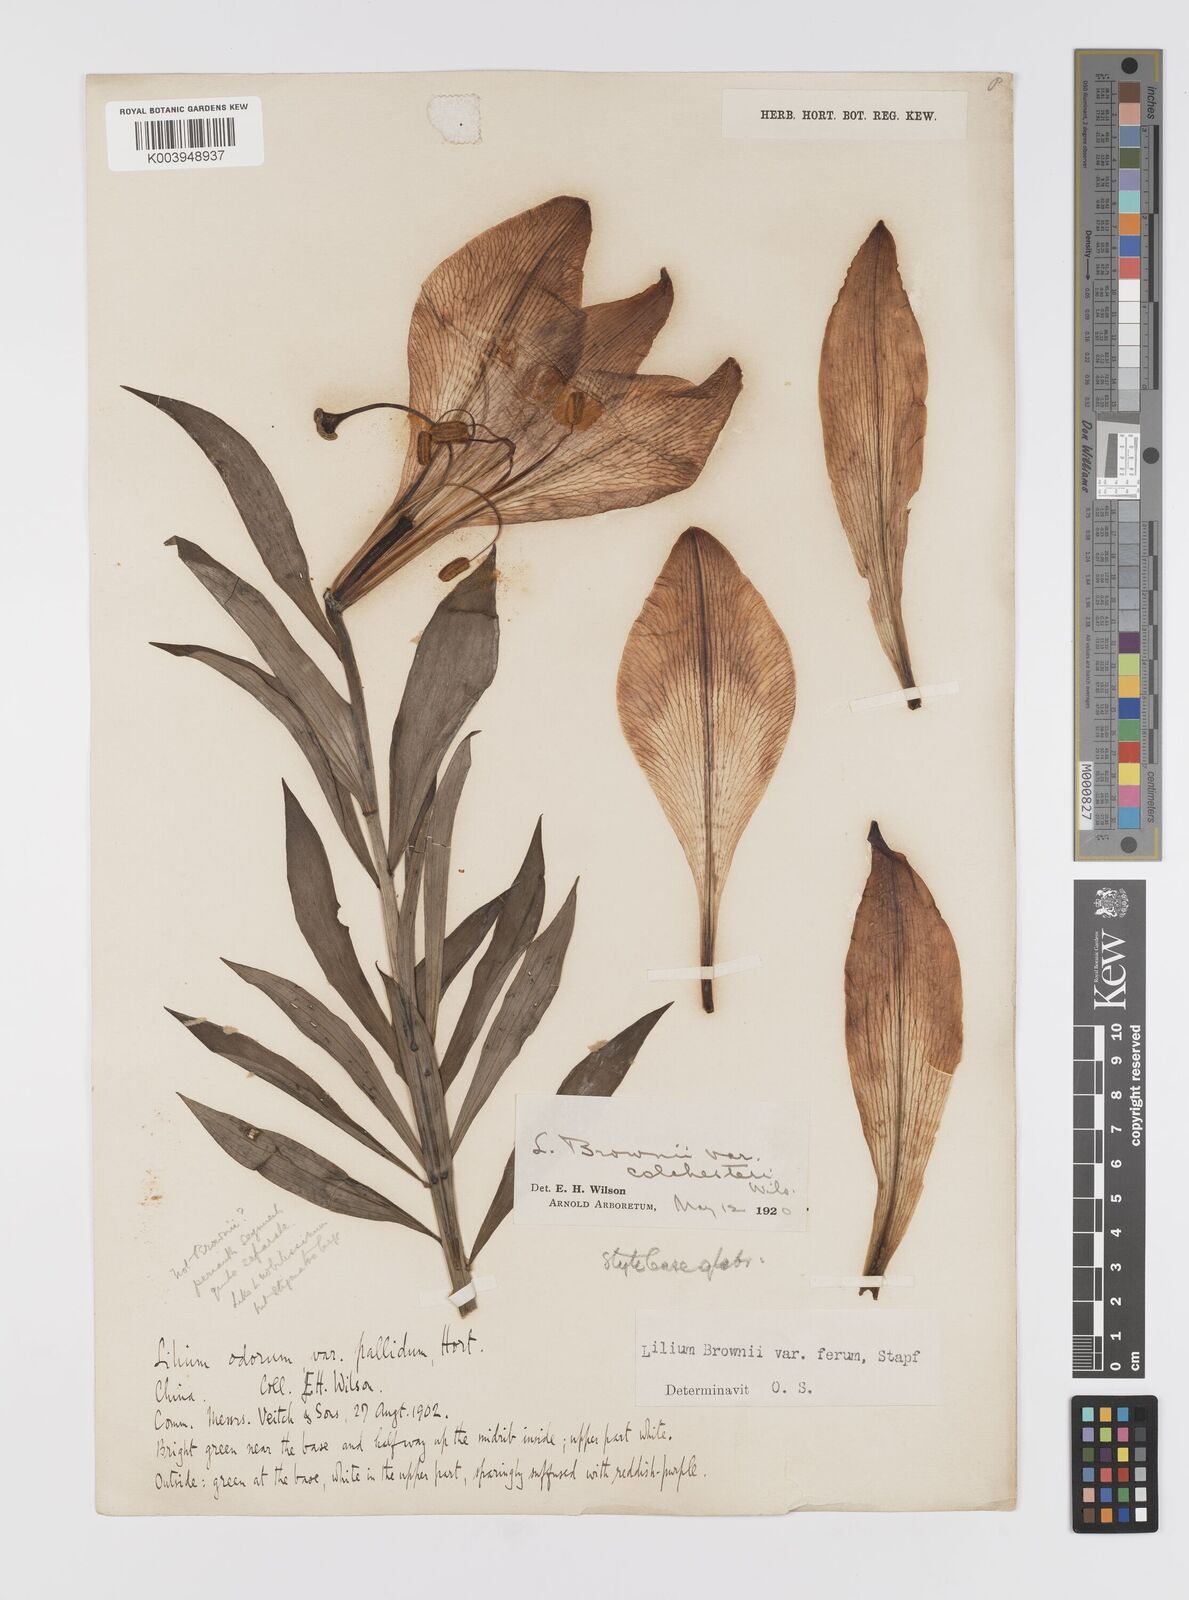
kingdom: Plantae
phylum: Tracheophyta
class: Liliopsida
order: Liliales
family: Liliaceae
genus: Lilium
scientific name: Lilium japonicum
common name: Japanese lily
